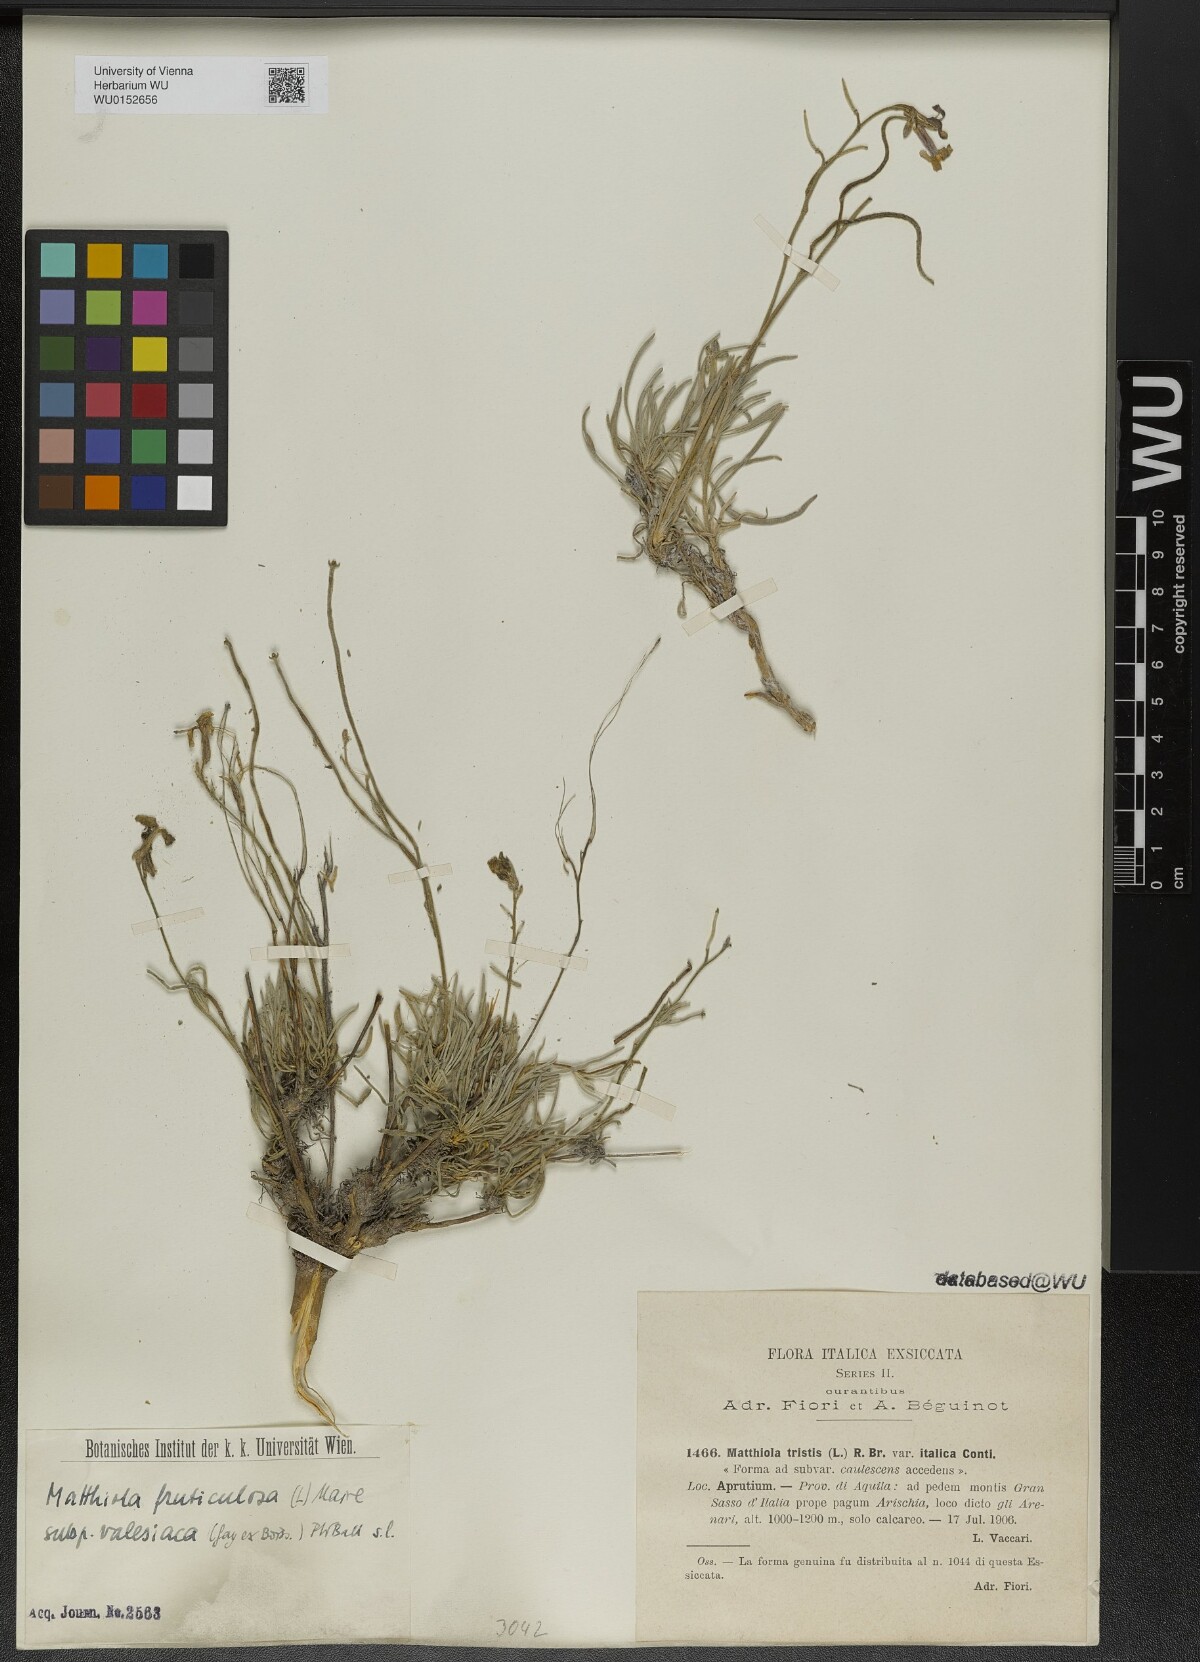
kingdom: Plantae
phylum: Tracheophyta
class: Magnoliopsida
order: Brassicales
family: Brassicaceae
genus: Matthiola
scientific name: Matthiola fruticulosa
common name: Sad stock
